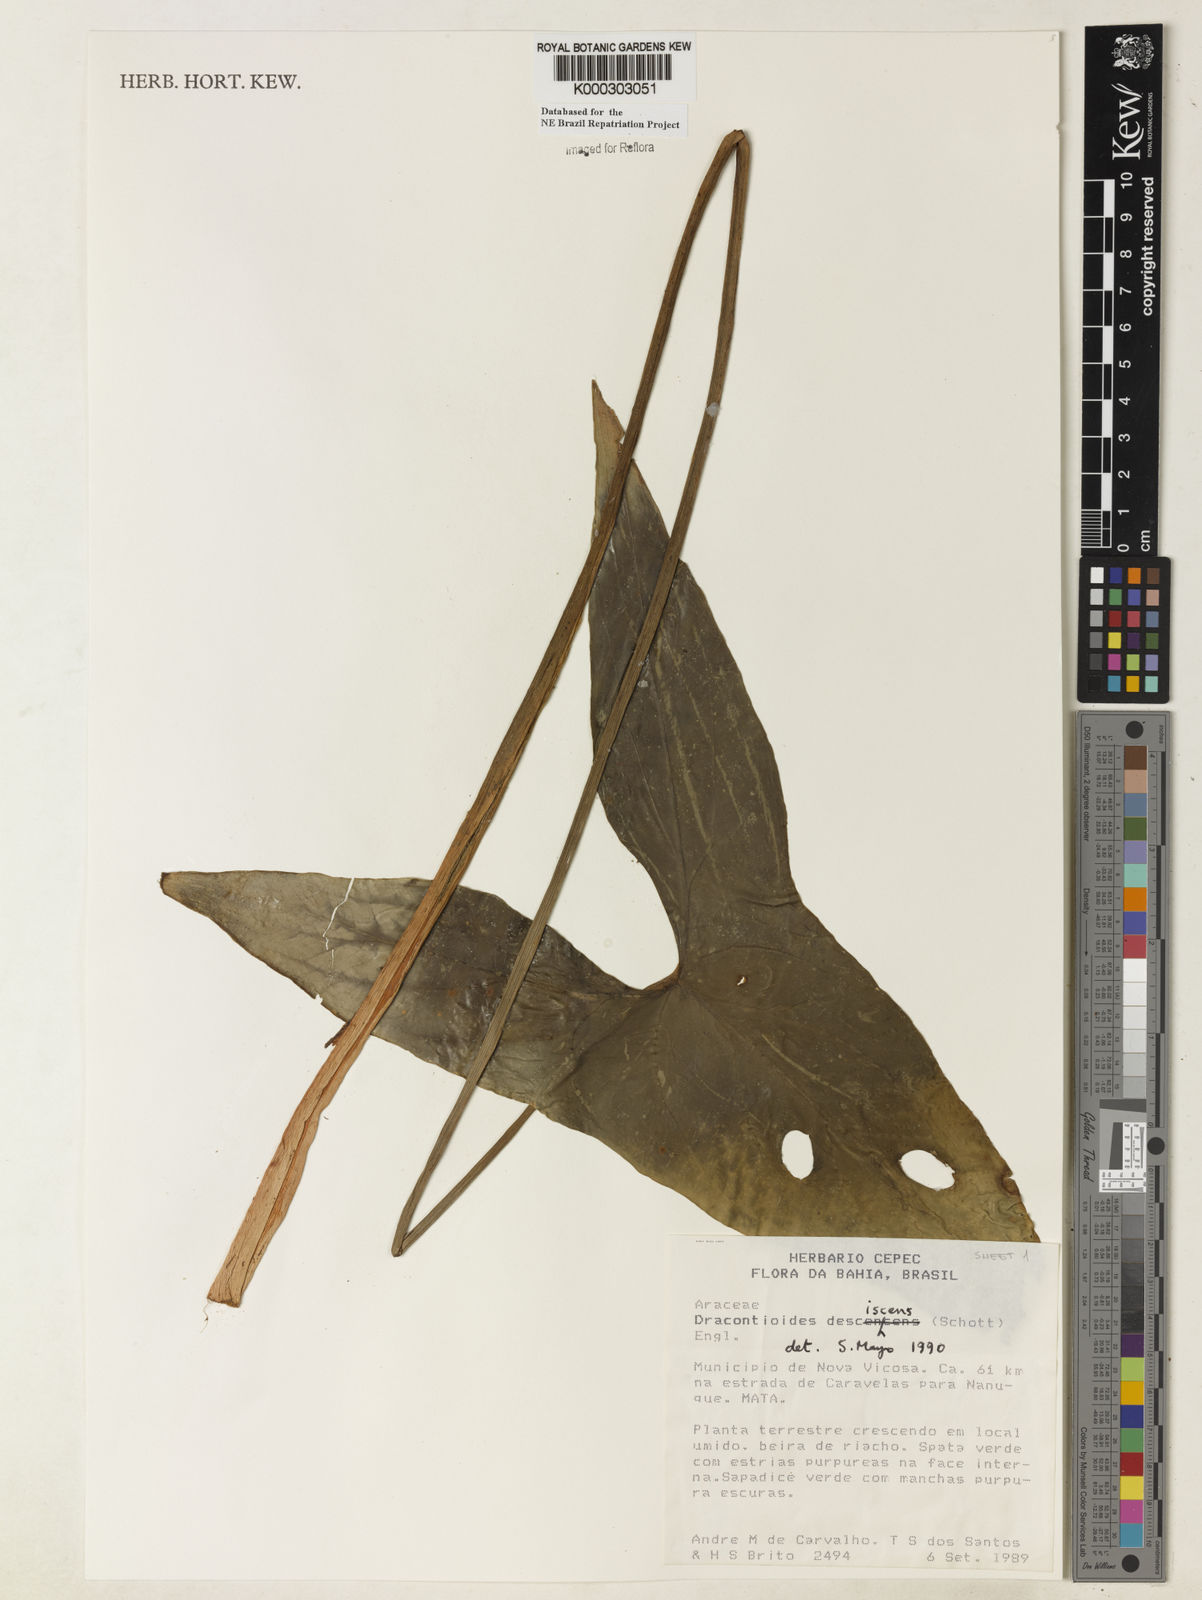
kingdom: Plantae
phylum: Tracheophyta
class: Liliopsida
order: Alismatales
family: Araceae
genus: Dracontioides
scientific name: Dracontioides desciscens
